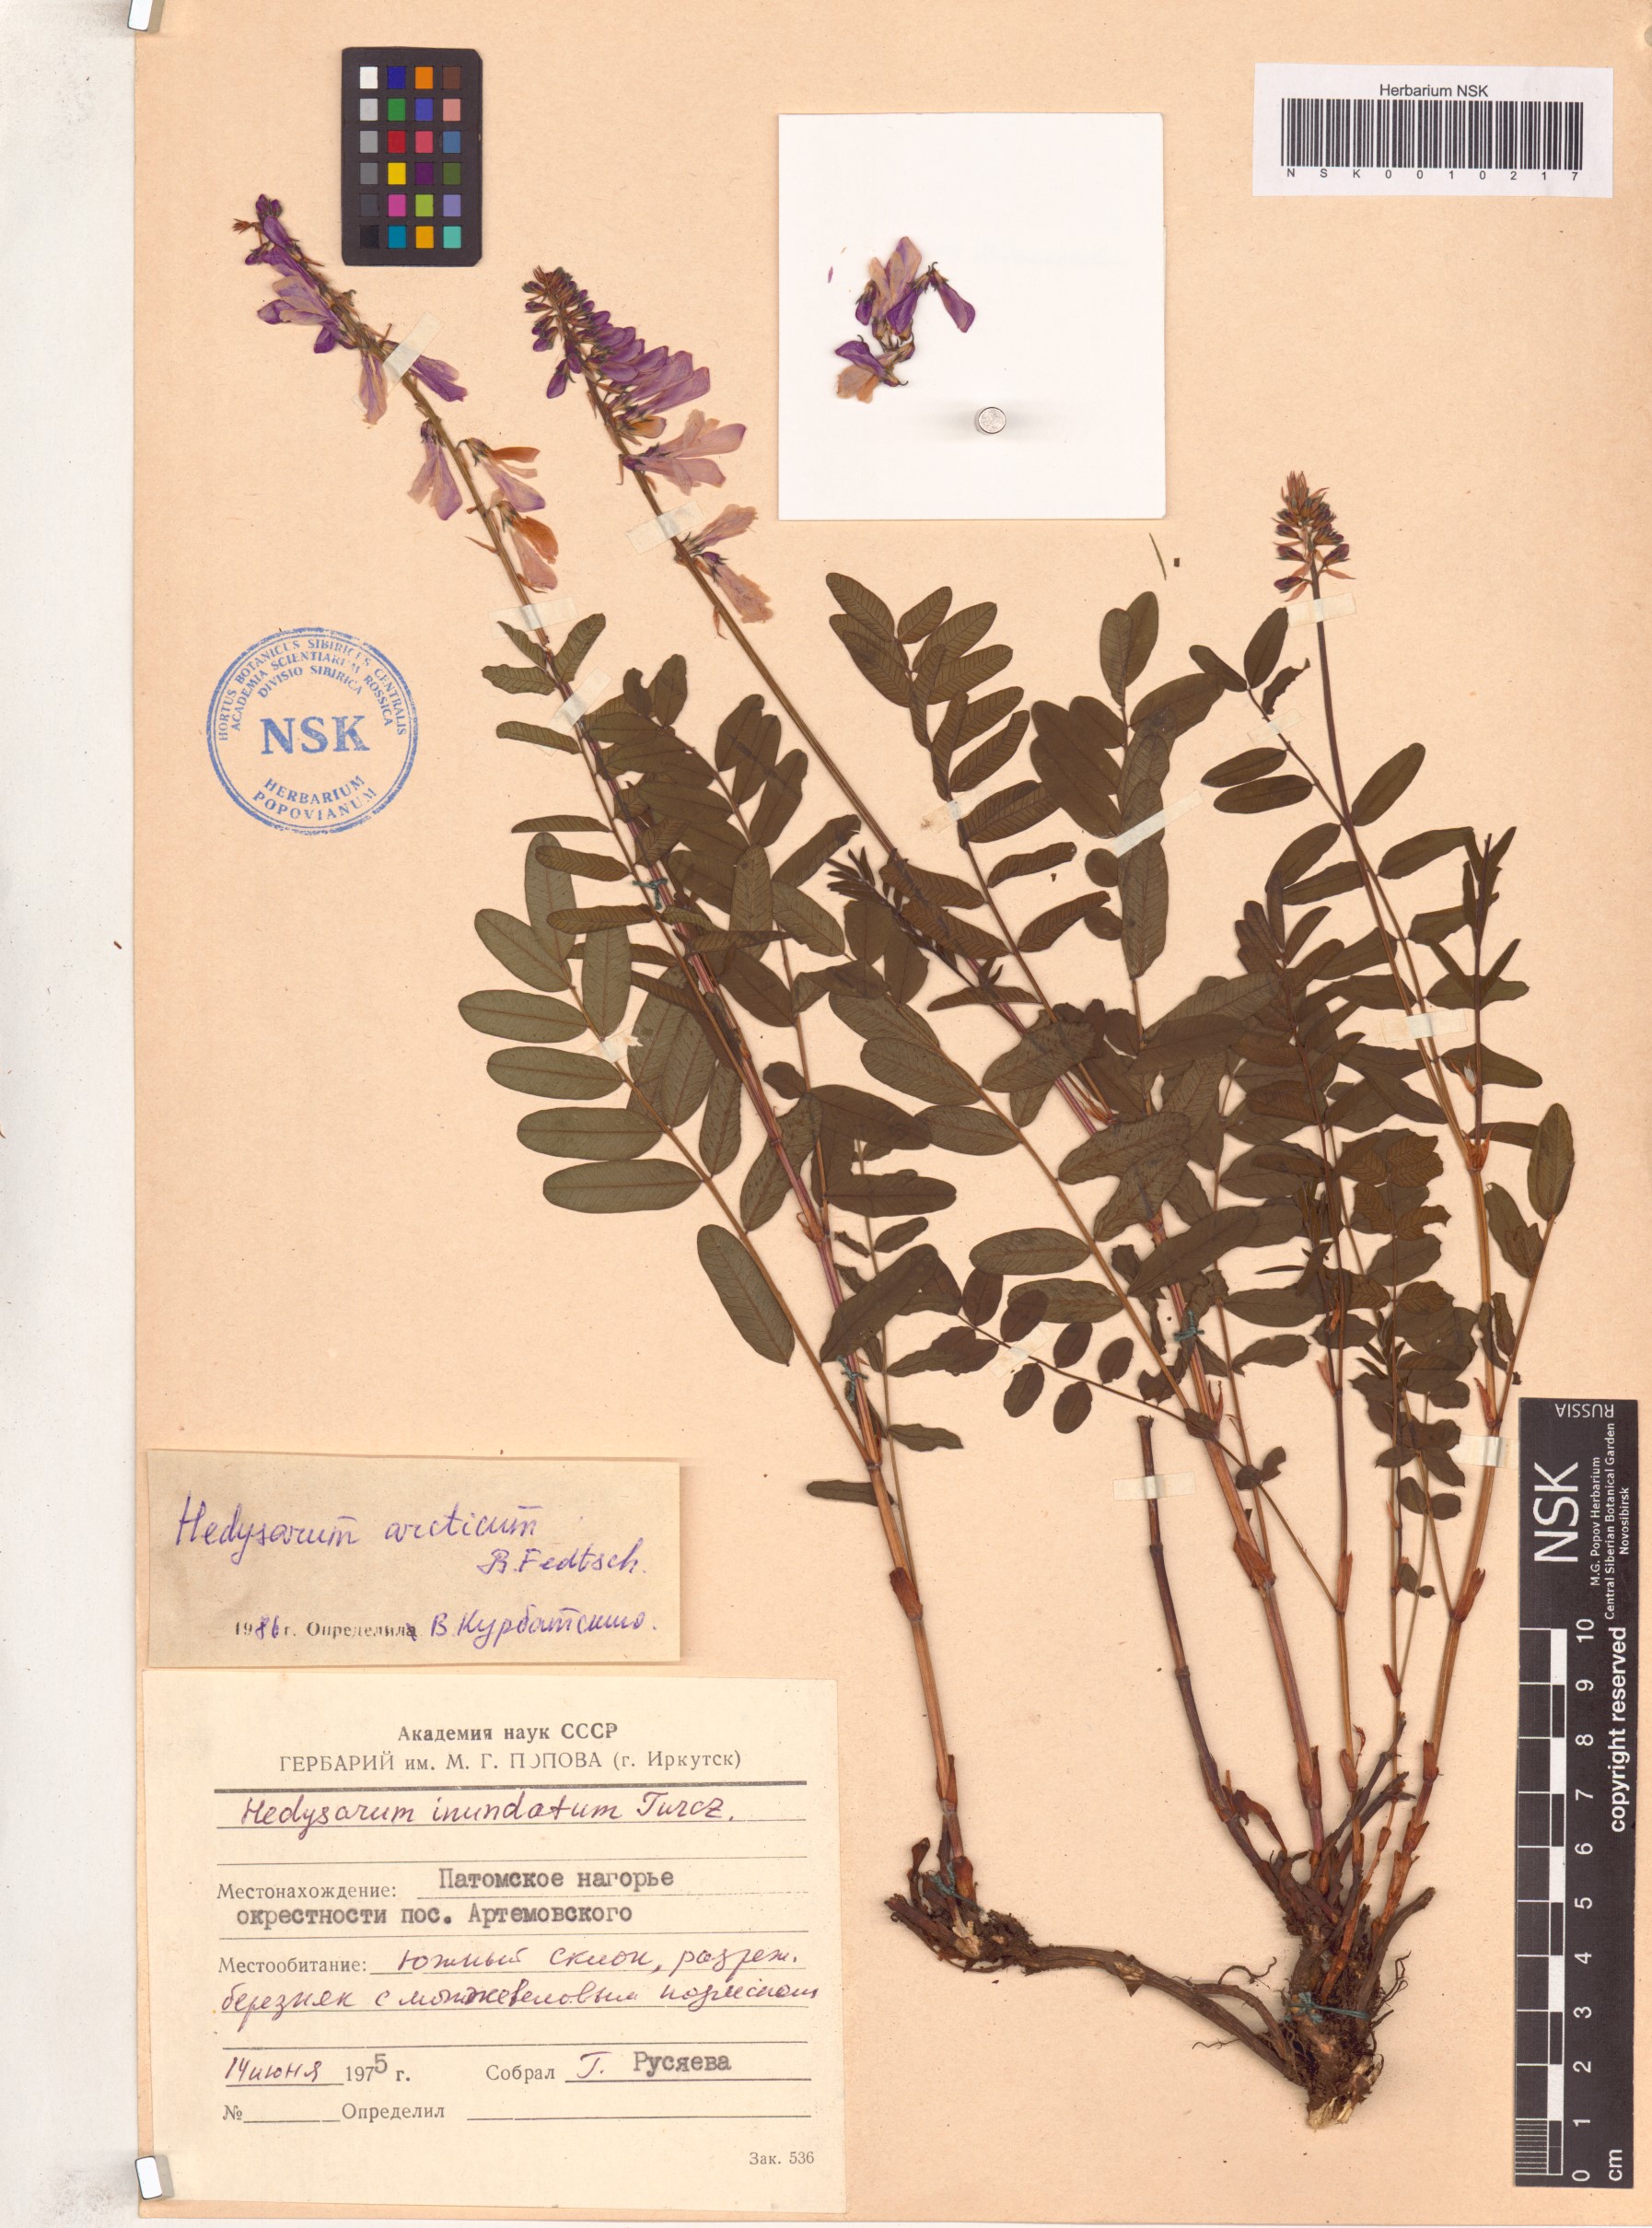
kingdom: Plantae
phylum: Tracheophyta
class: Magnoliopsida
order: Fabales
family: Fabaceae
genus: Hedysarum
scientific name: Hedysarum hedysaroides
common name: Alpine french-honeysuckle
